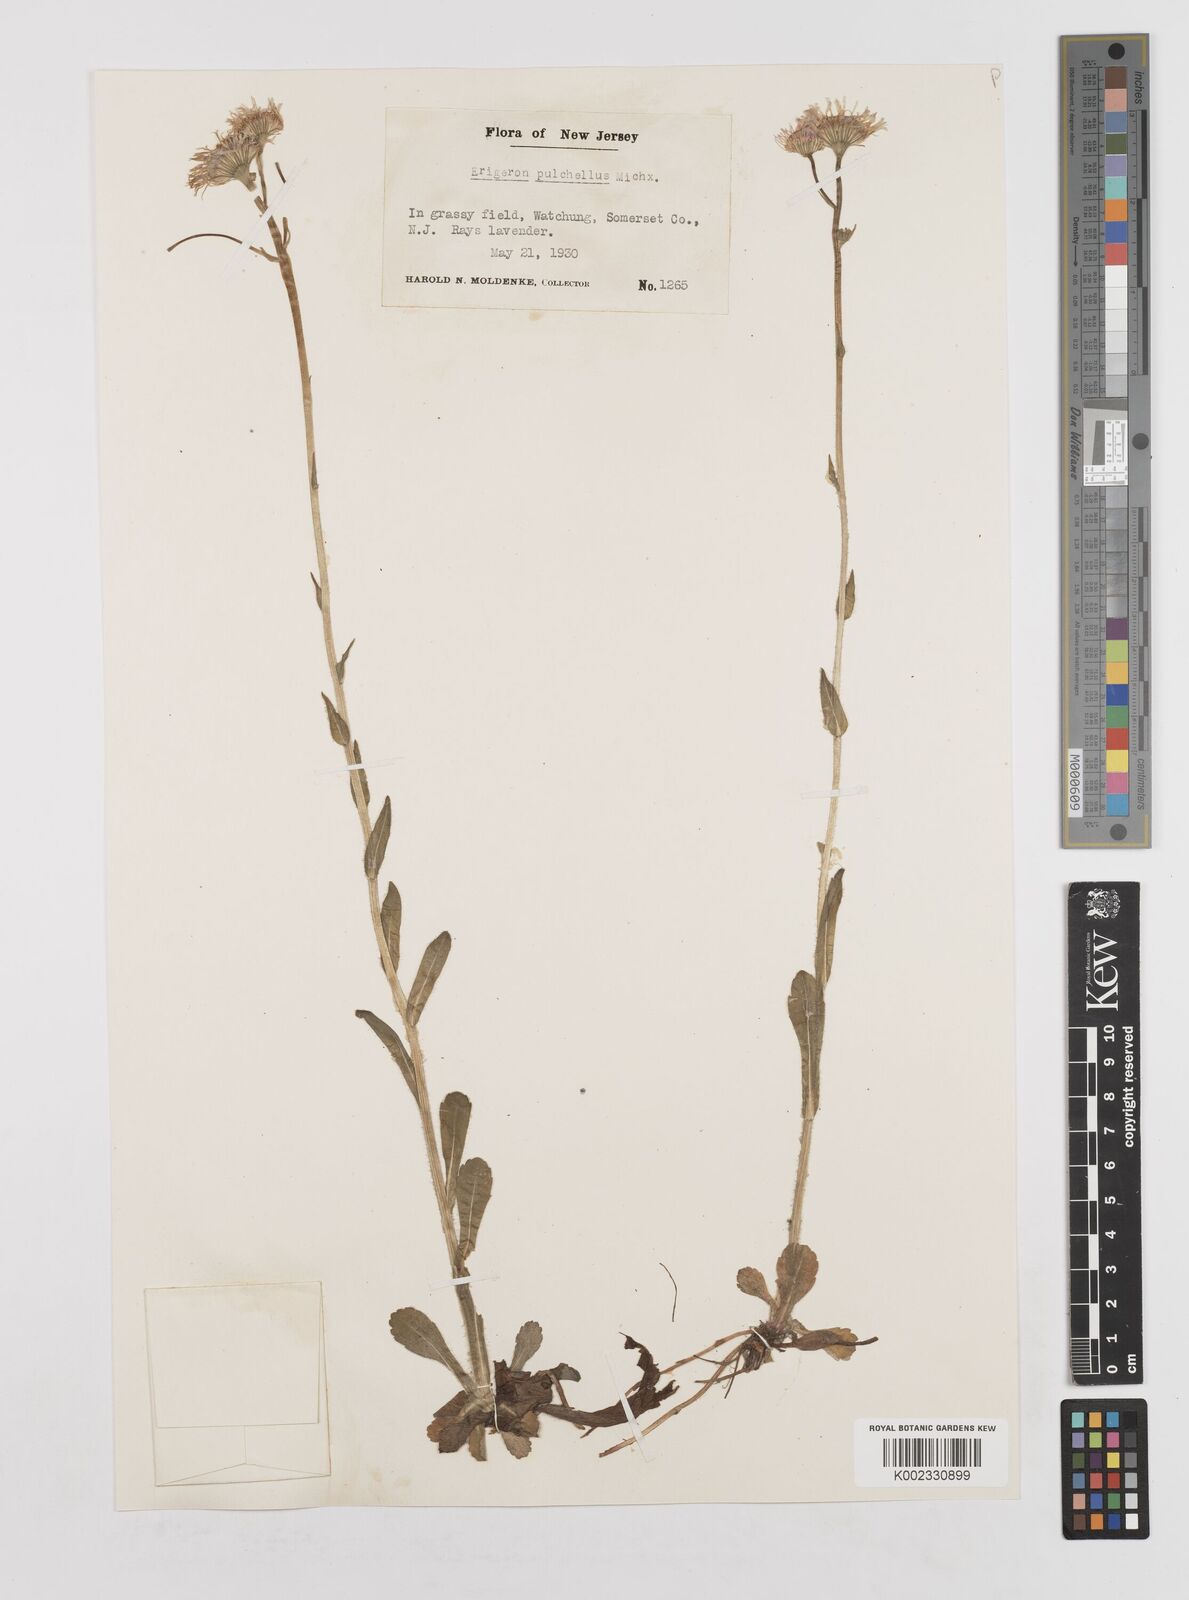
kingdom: Plantae
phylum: Tracheophyta
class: Magnoliopsida
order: Asterales
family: Asteraceae
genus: Erigeron
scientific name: Erigeron pulchellus
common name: Hairy fleabane
